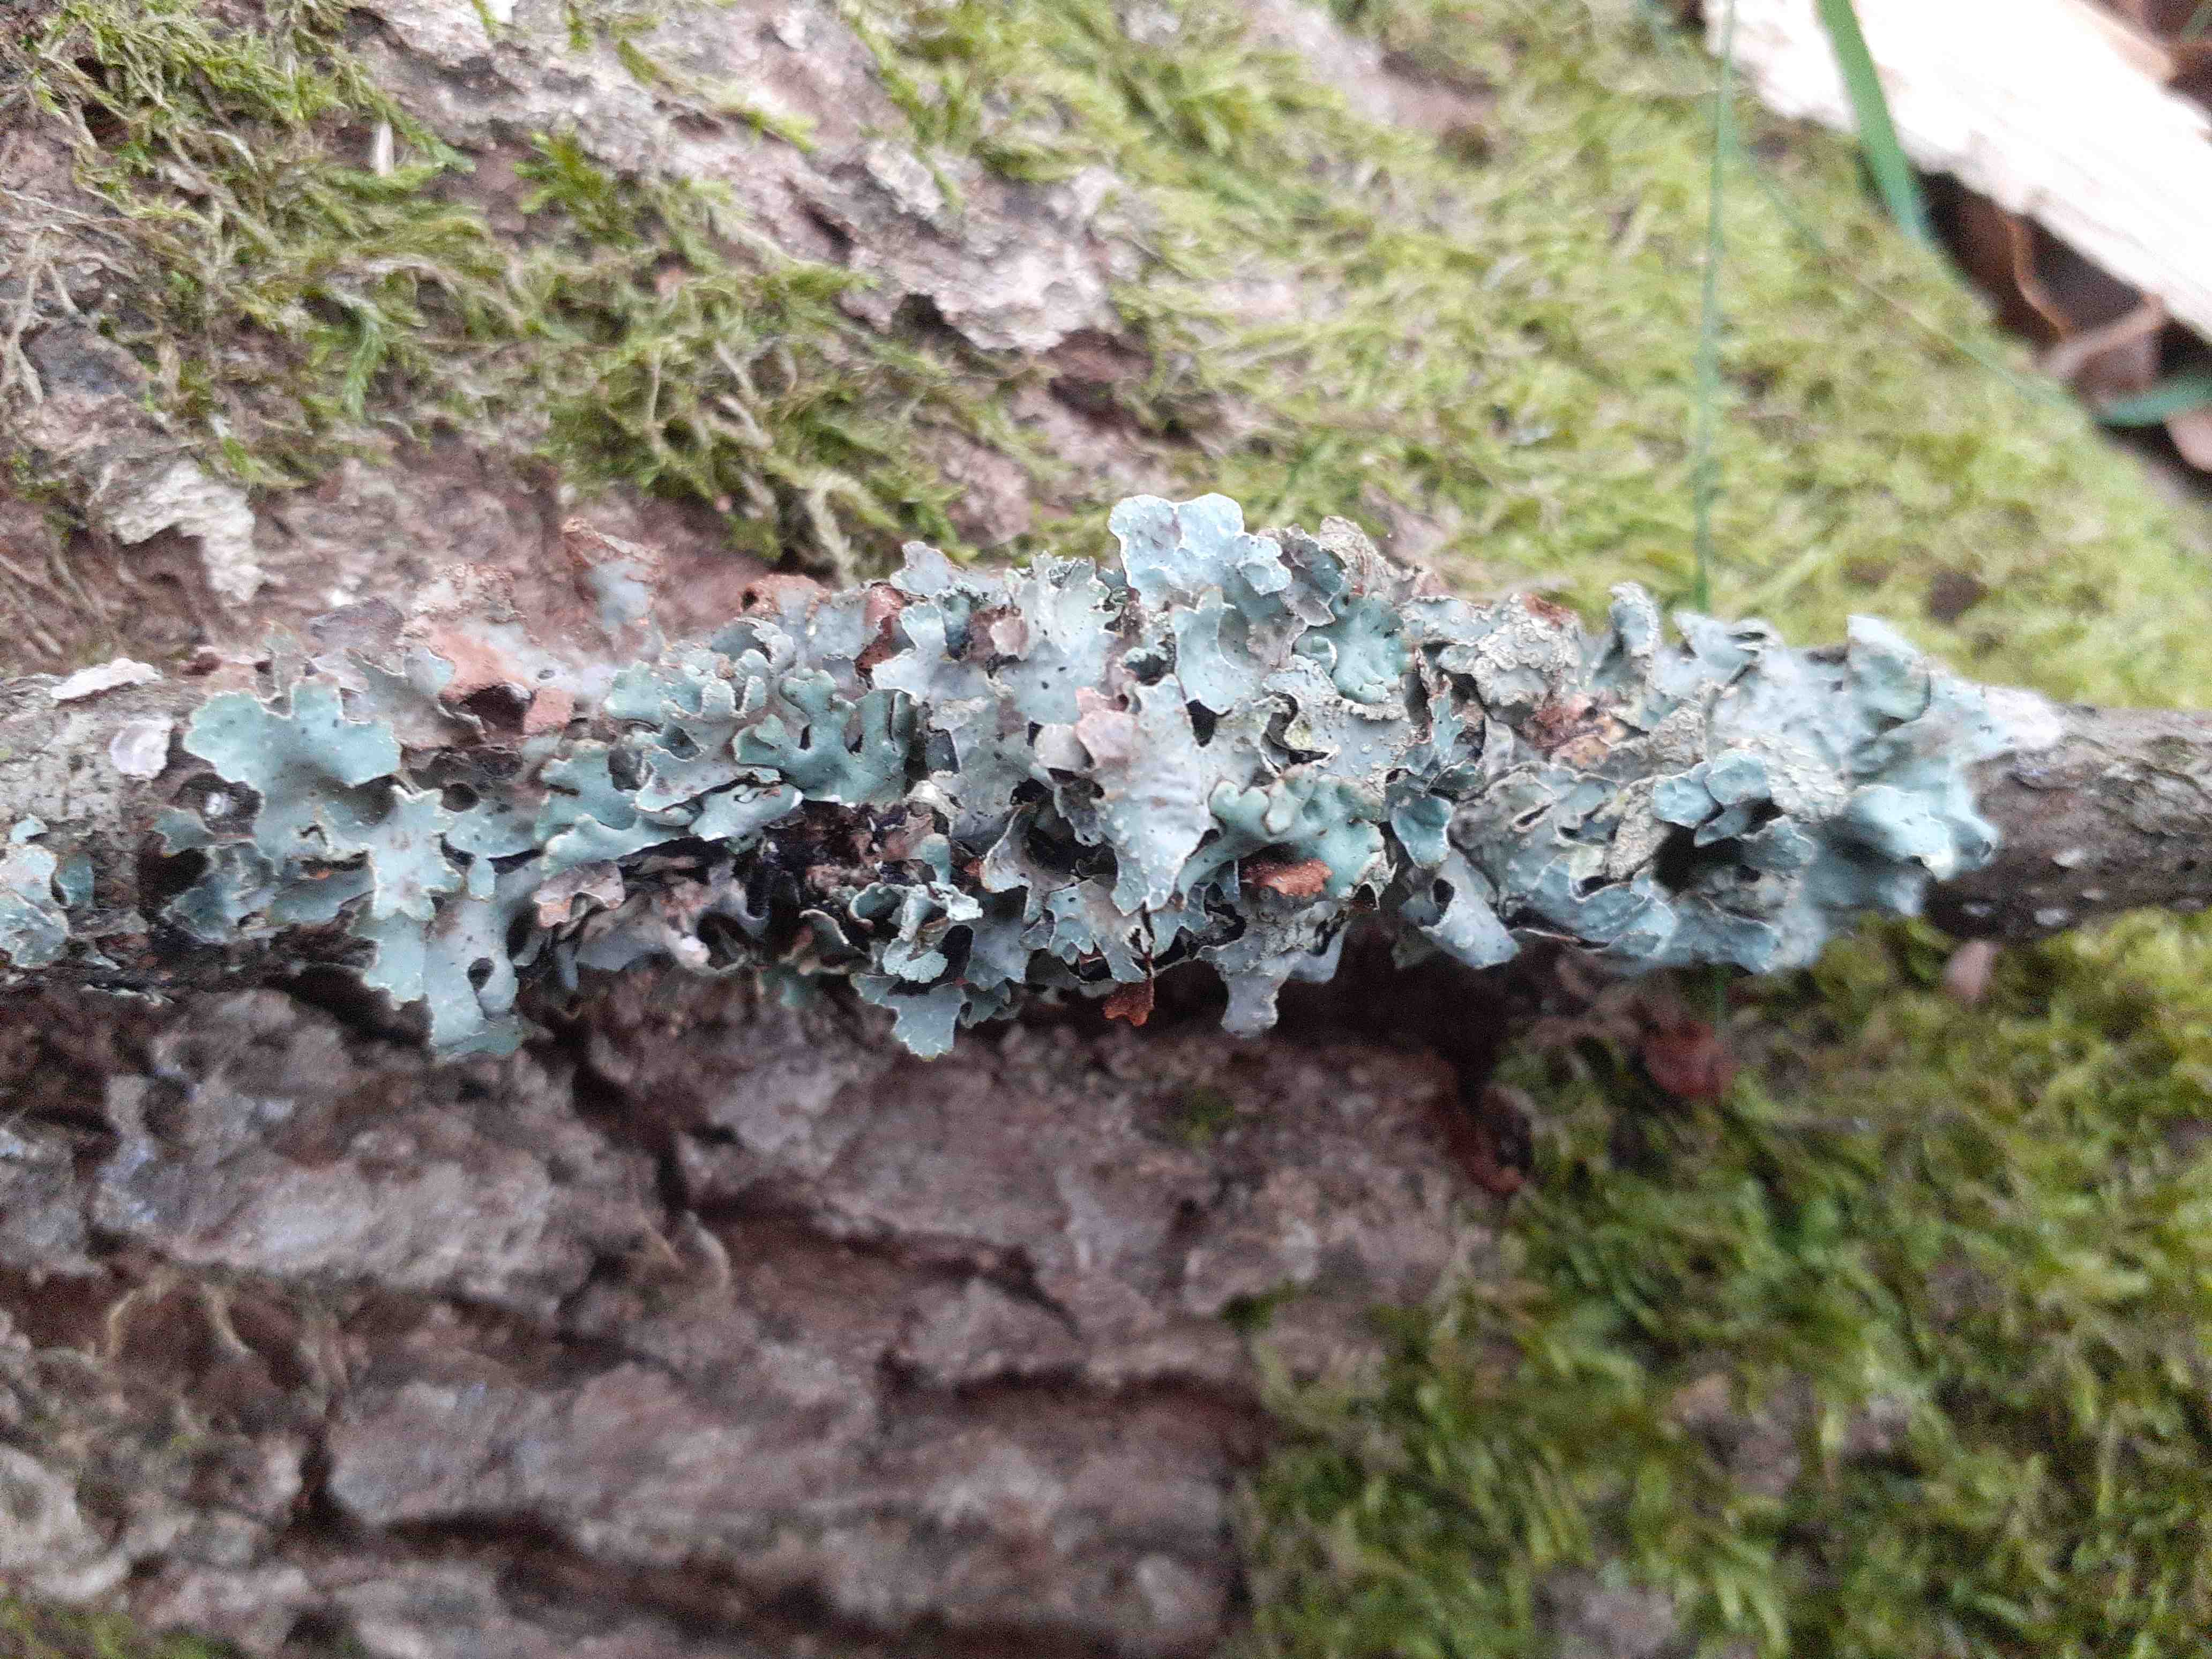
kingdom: Fungi
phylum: Ascomycota
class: Lecanoromycetes
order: Lecanorales
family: Parmeliaceae
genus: Parmelia
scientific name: Parmelia sulcata
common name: rynket skållav
